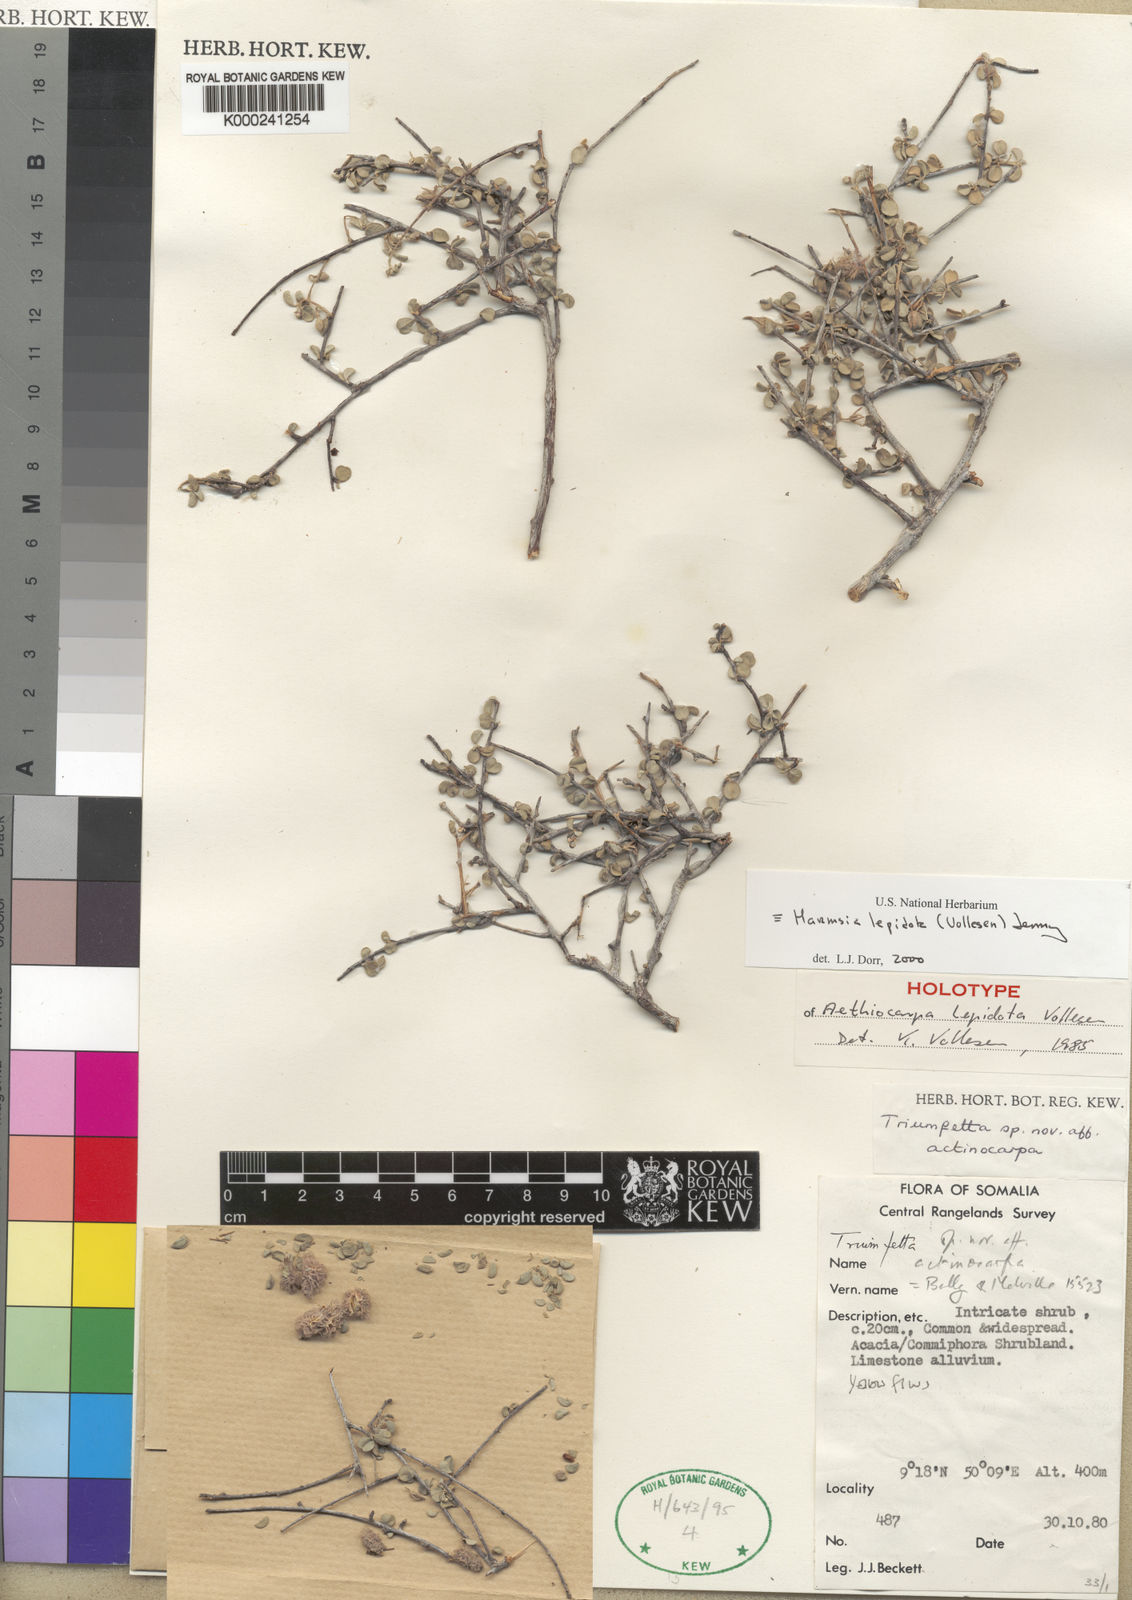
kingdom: Plantae
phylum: Tracheophyta
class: Magnoliopsida
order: Malvales
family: Malvaceae
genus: Harmsia
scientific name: Harmsia lepidota
